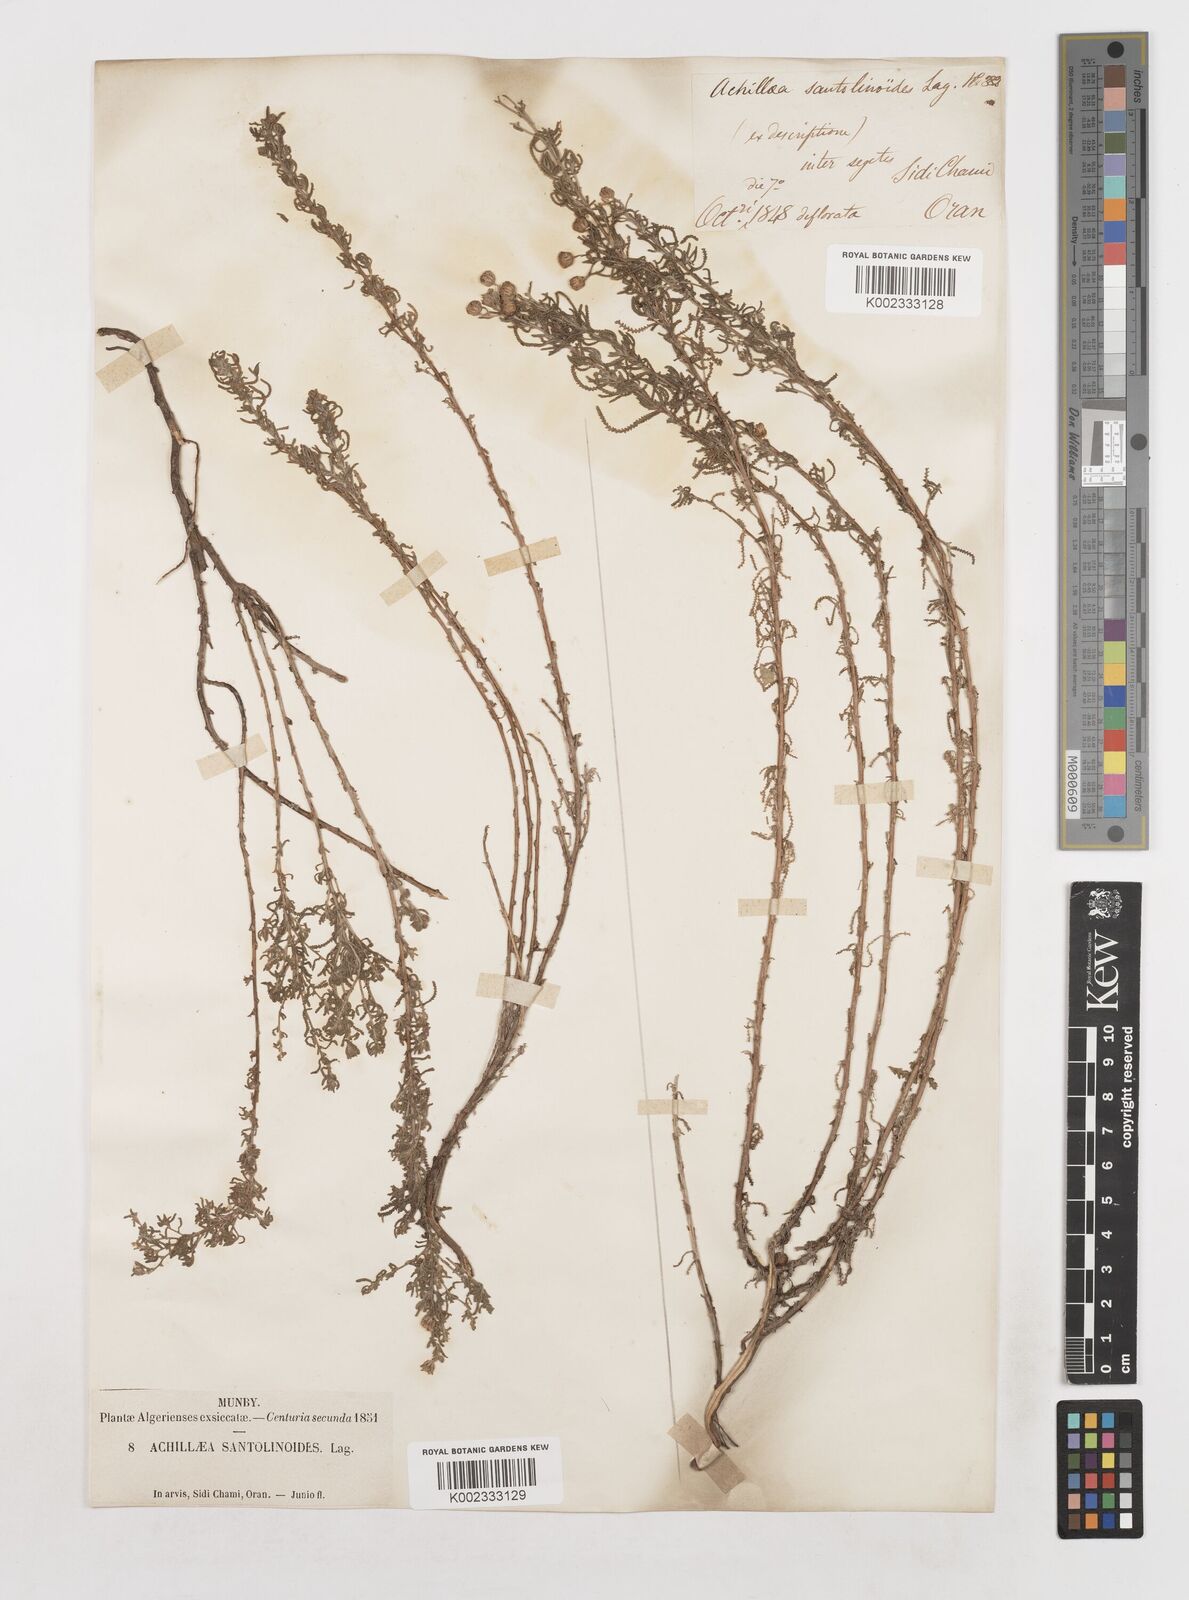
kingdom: Plantae
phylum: Tracheophyta
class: Magnoliopsida
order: Asterales
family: Asteraceae
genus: Achillea
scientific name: Achillea santolinoides
